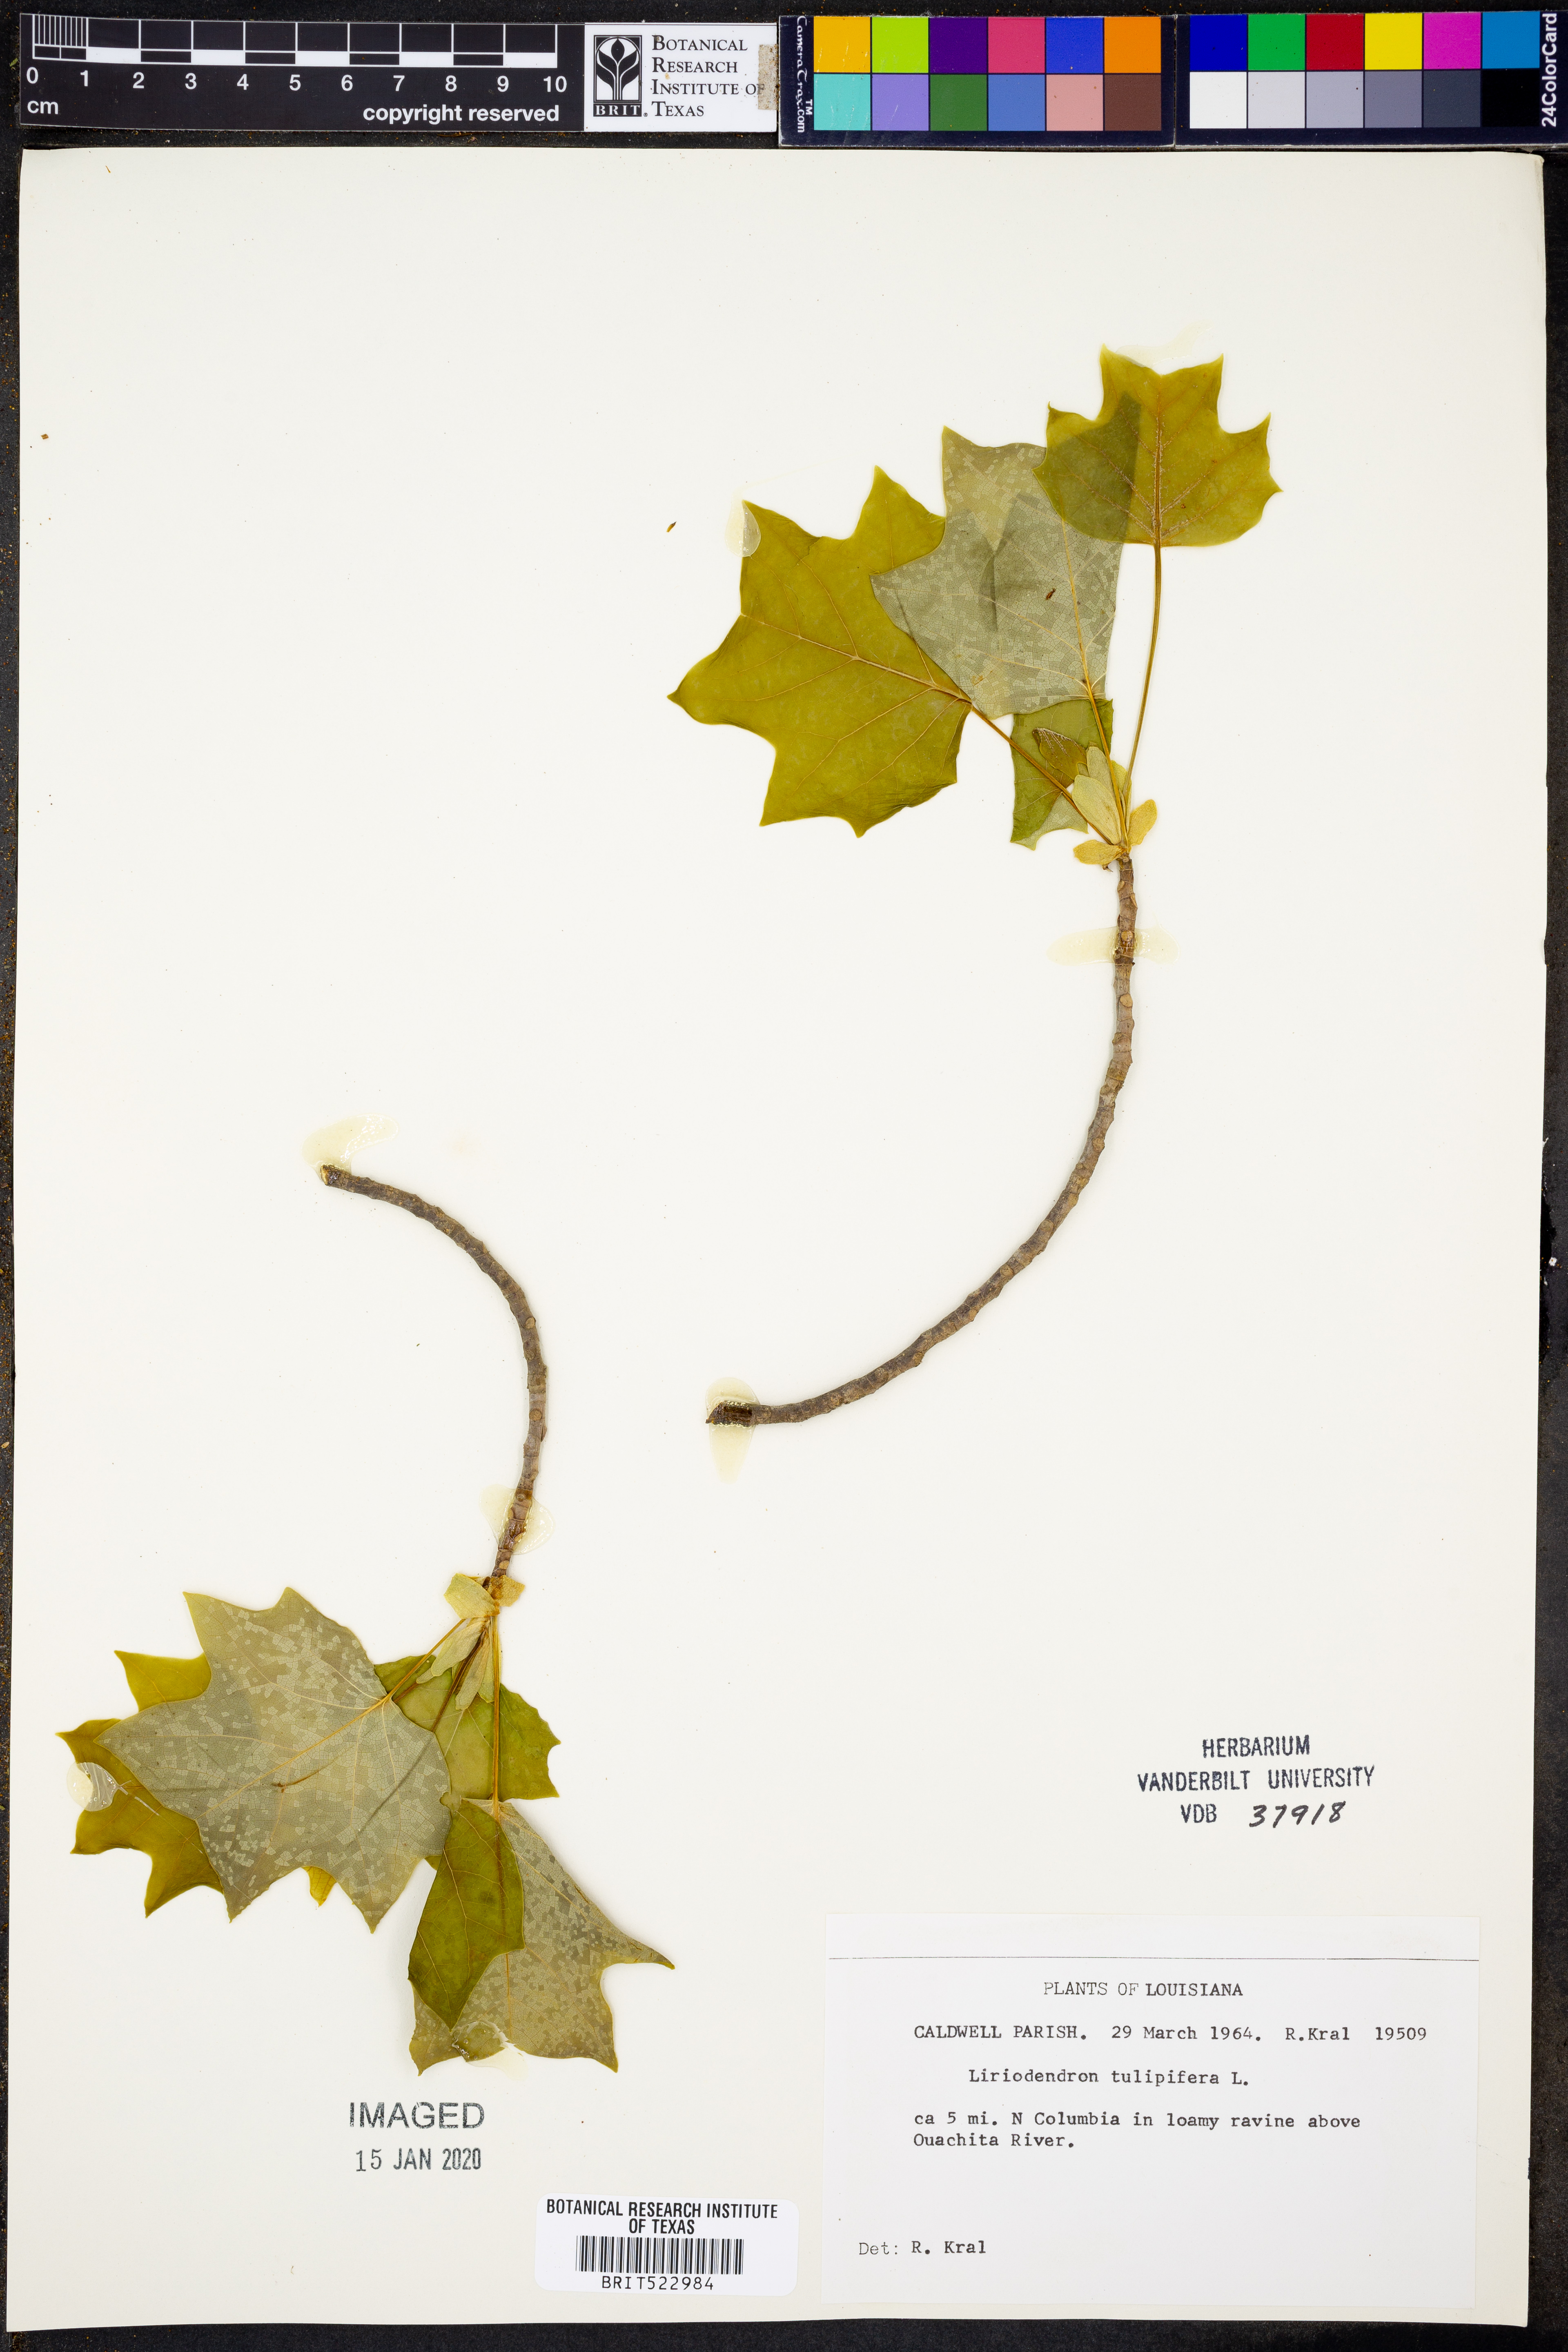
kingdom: Plantae
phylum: Tracheophyta
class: Magnoliopsida
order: Magnoliales
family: Magnoliaceae
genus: Liriodendron
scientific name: Liriodendron tulipifera
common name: Tulip tree
